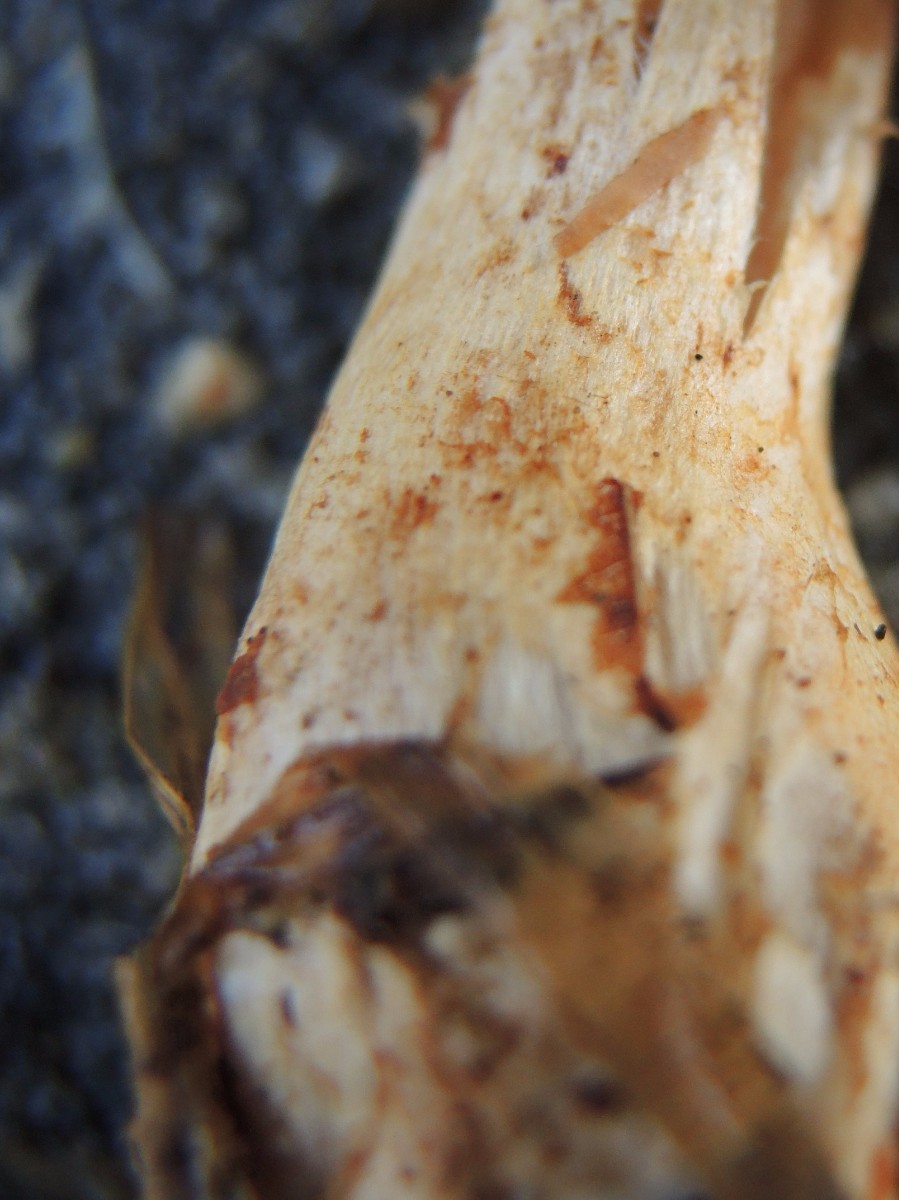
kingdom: Fungi
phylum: Basidiomycota
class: Agaricomycetes
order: Agaricales
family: Cortinariaceae
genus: Cortinarius
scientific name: Cortinarius spilomeus
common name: rødfnugget slørhat
